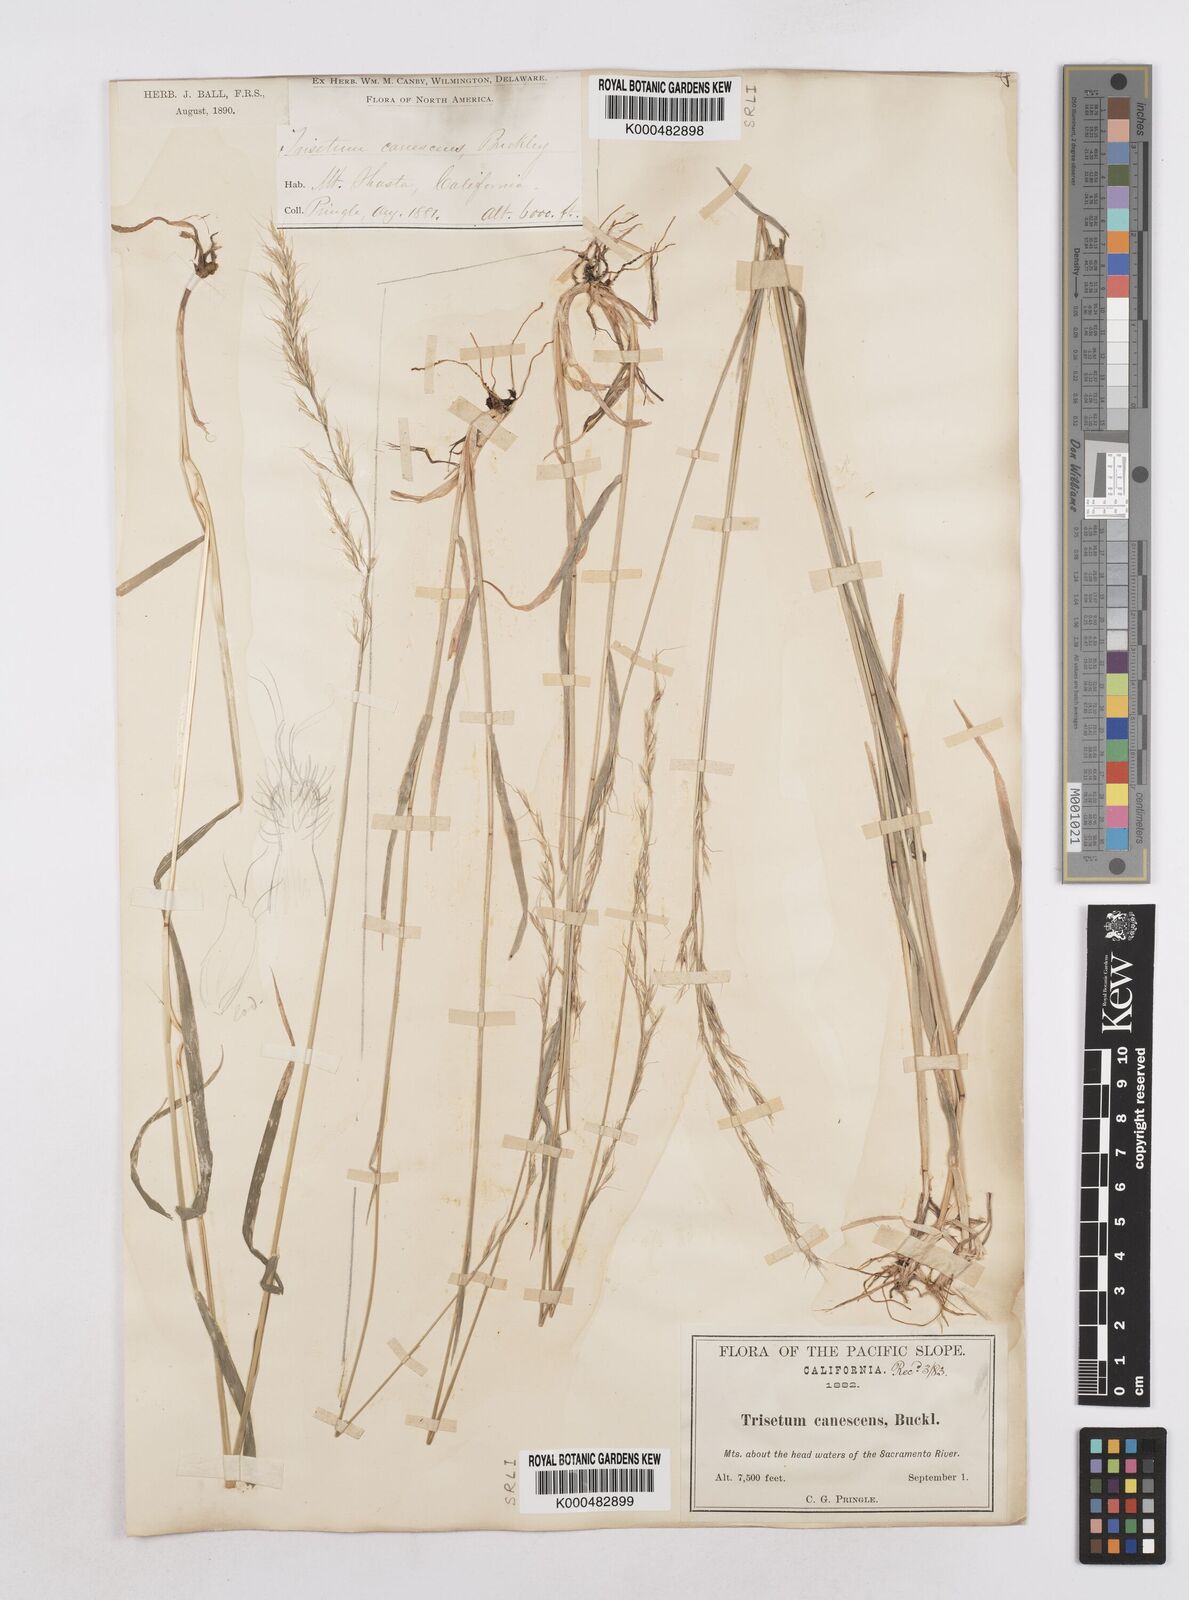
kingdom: Plantae
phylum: Tracheophyta
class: Liliopsida
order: Poales
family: Poaceae
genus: Graphephorum
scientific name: Graphephorum canescens
